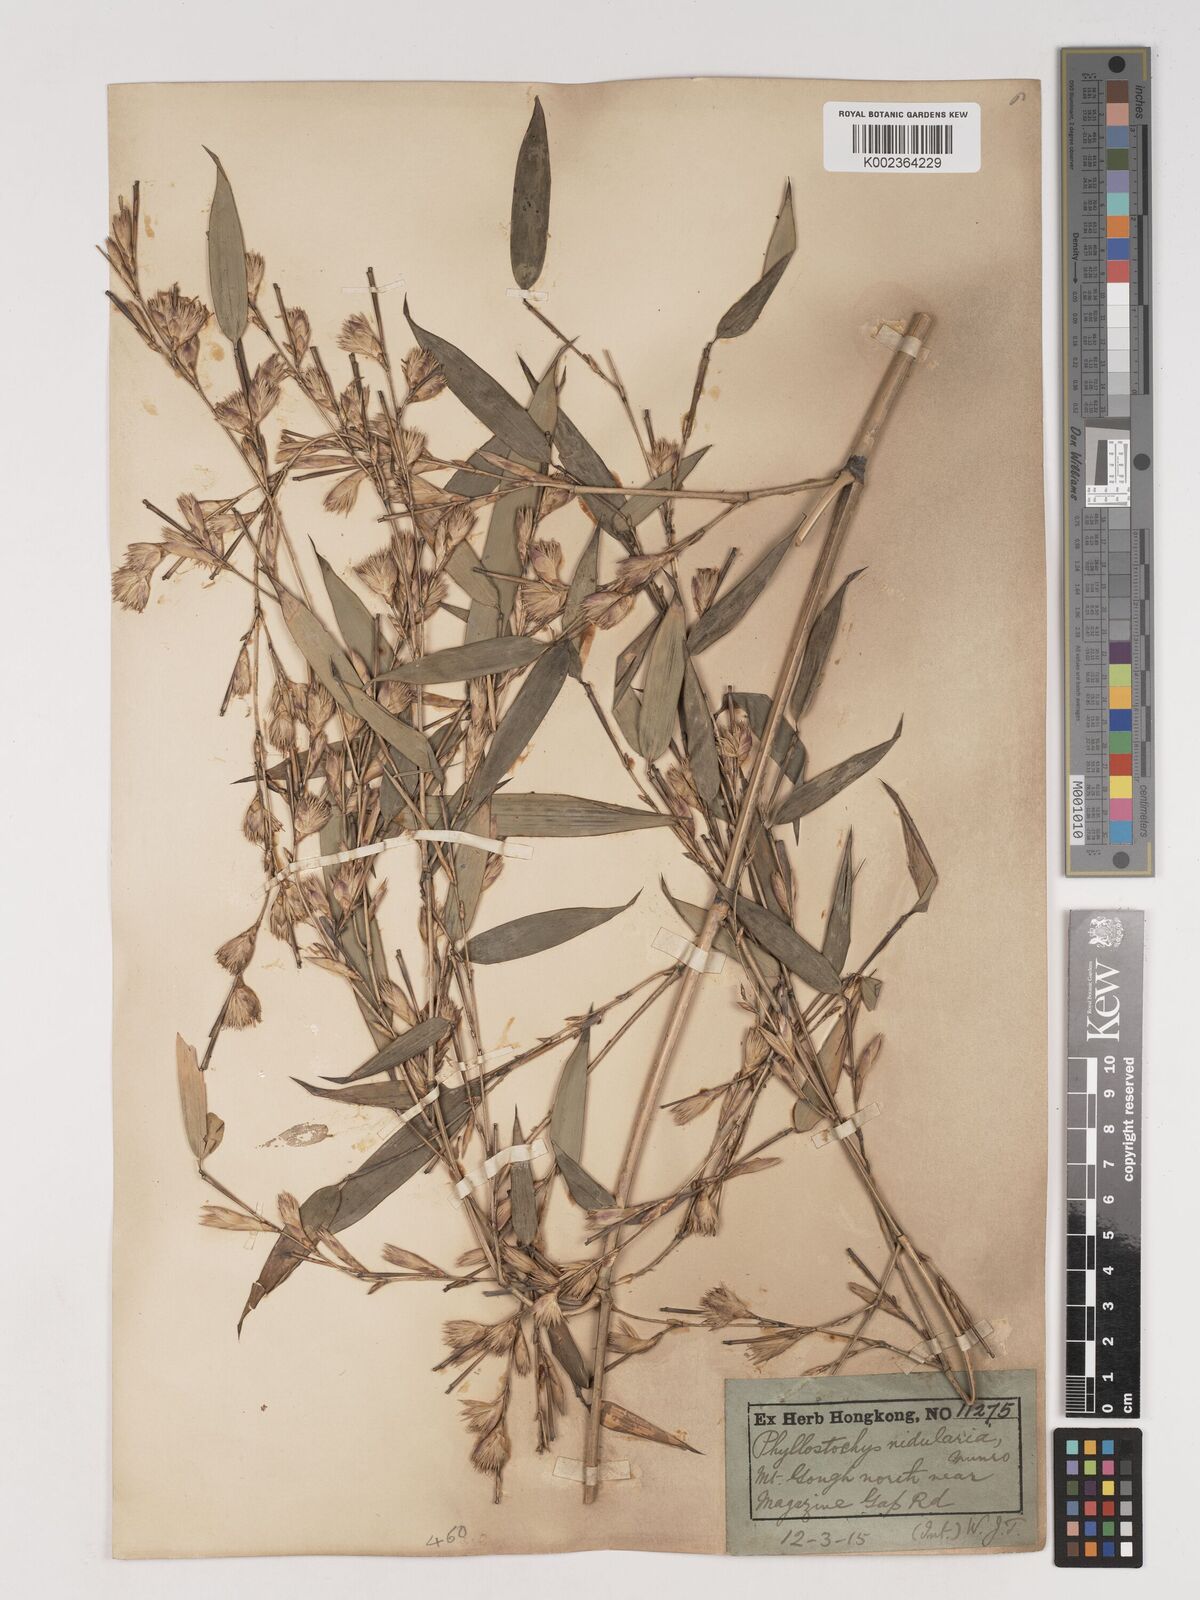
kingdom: Plantae
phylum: Tracheophyta
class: Liliopsida
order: Poales
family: Poaceae
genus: Phyllostachys
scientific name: Phyllostachys nidularia
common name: Broom bamboo
